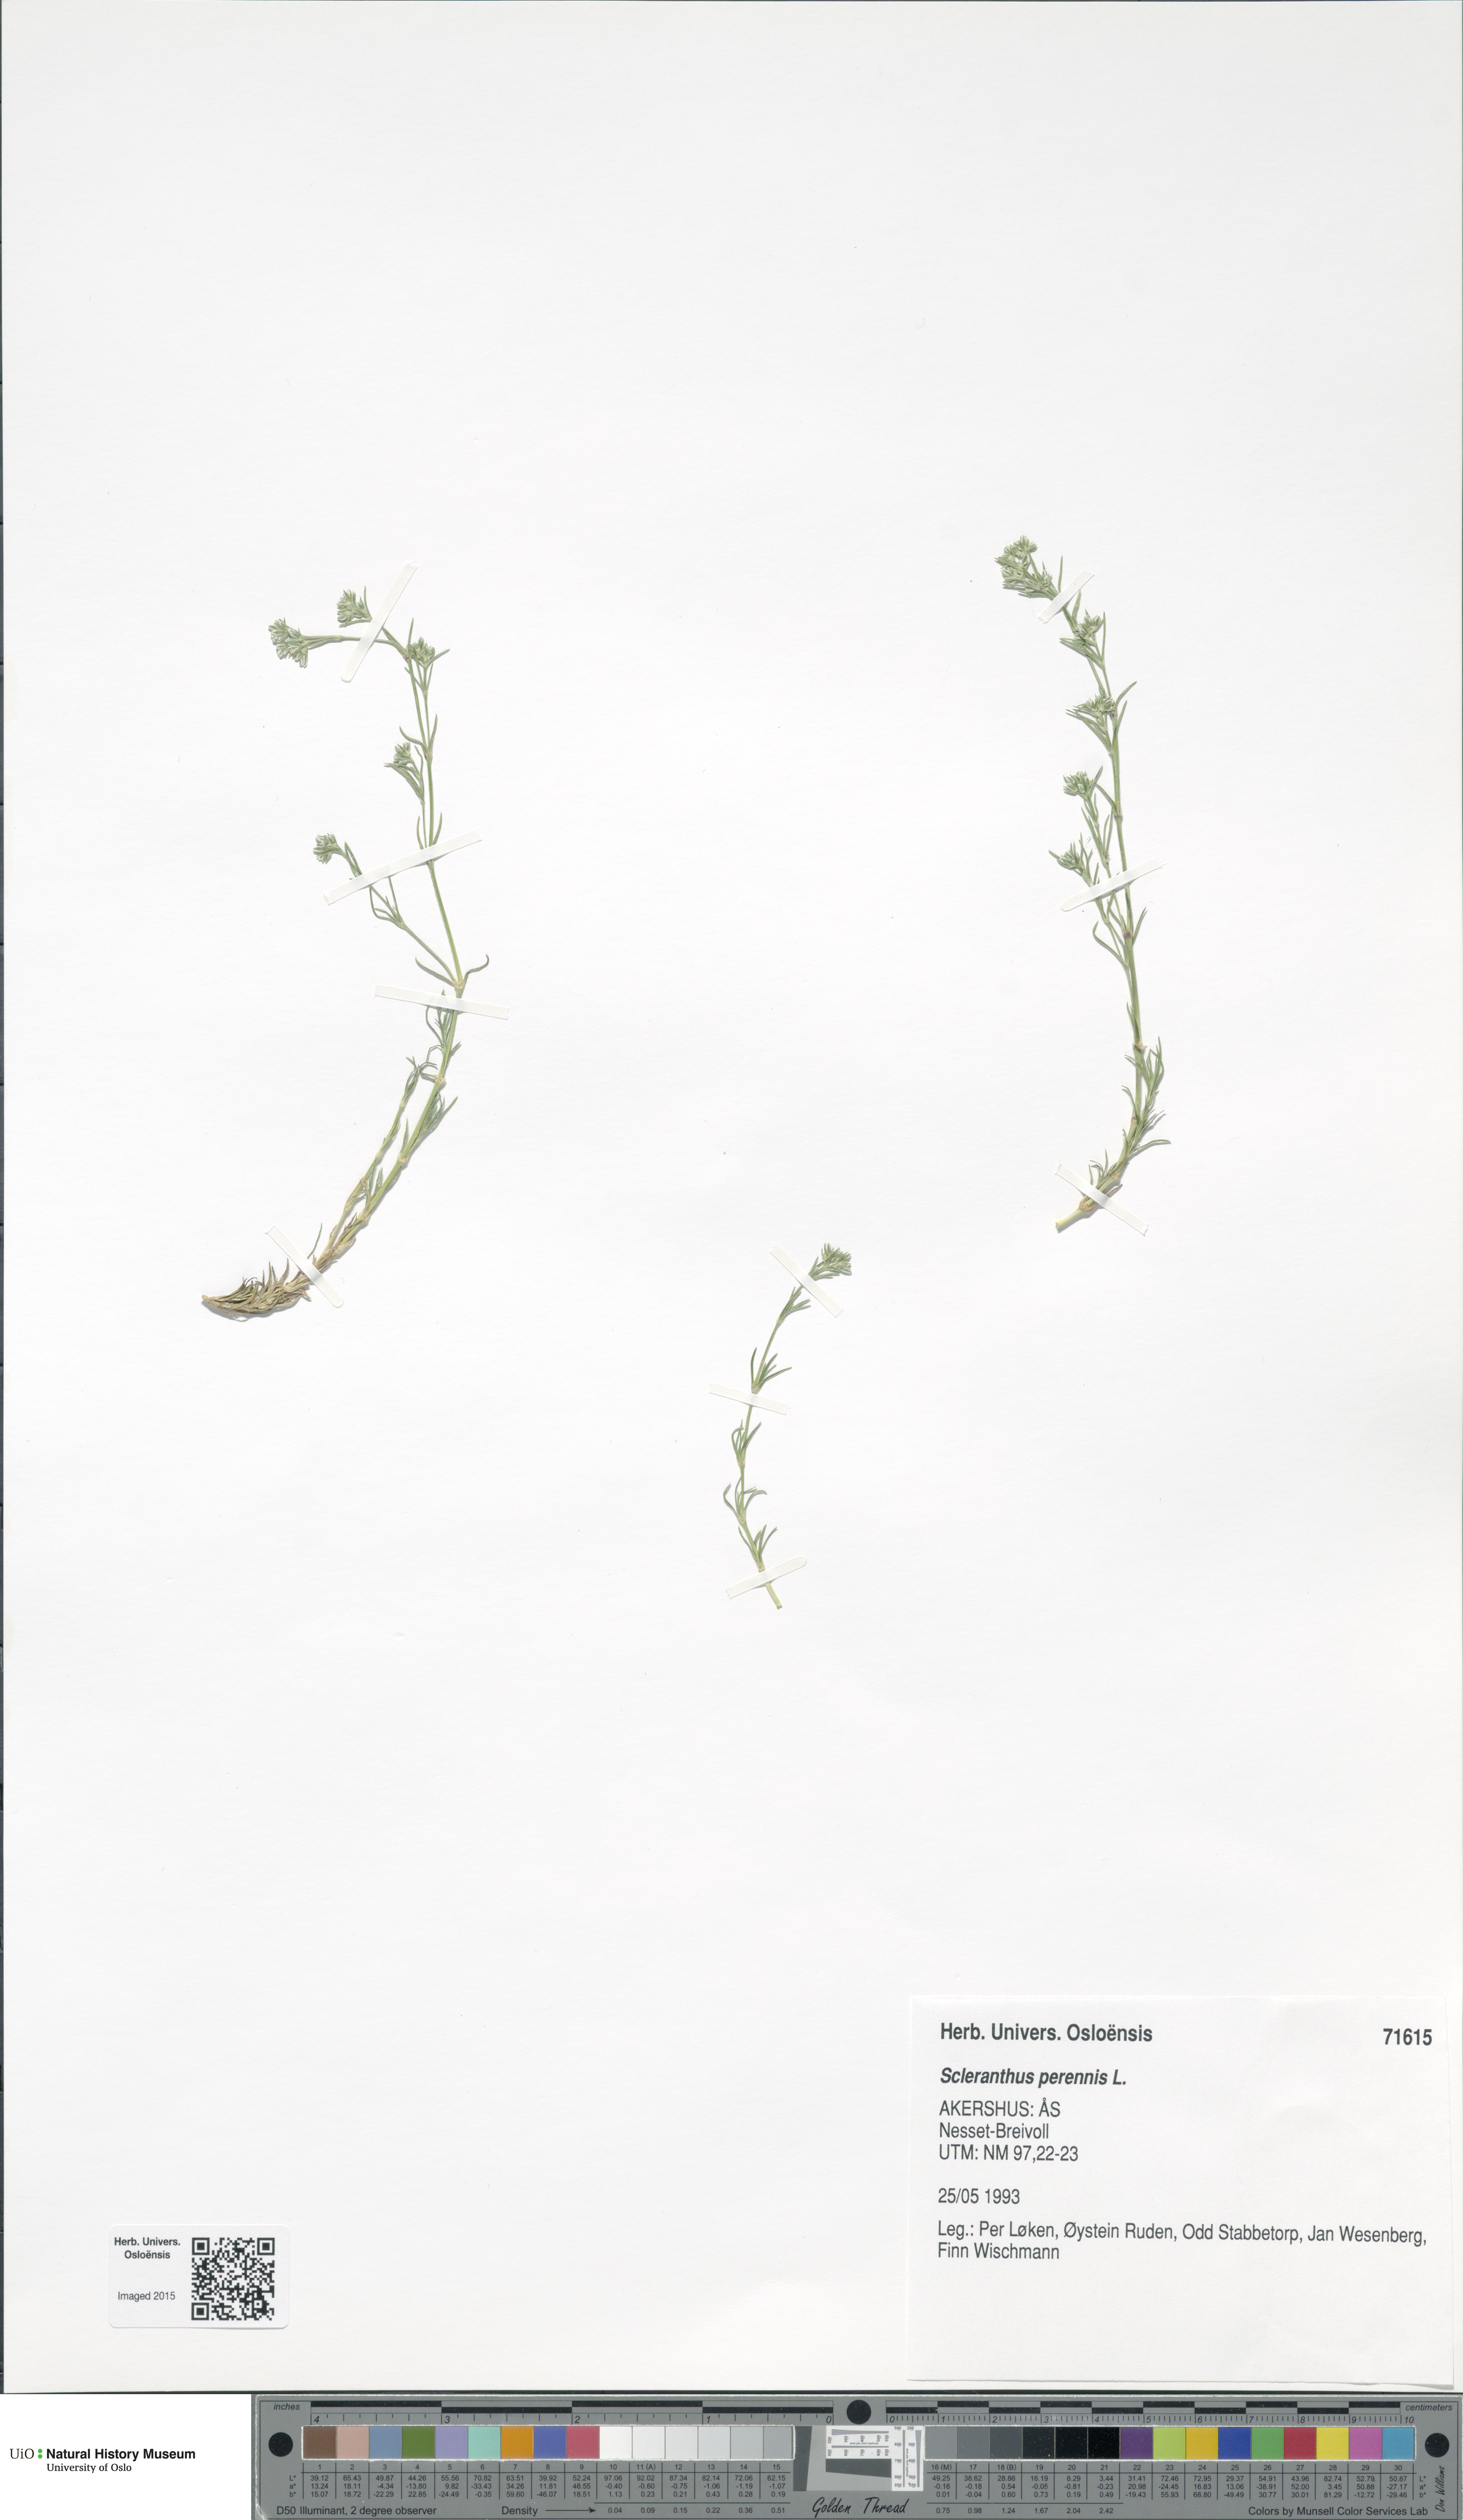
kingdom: Plantae
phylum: Tracheophyta
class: Magnoliopsida
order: Caryophyllales
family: Caryophyllaceae
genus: Scleranthus
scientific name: Scleranthus perennis
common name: Perennial knawel
